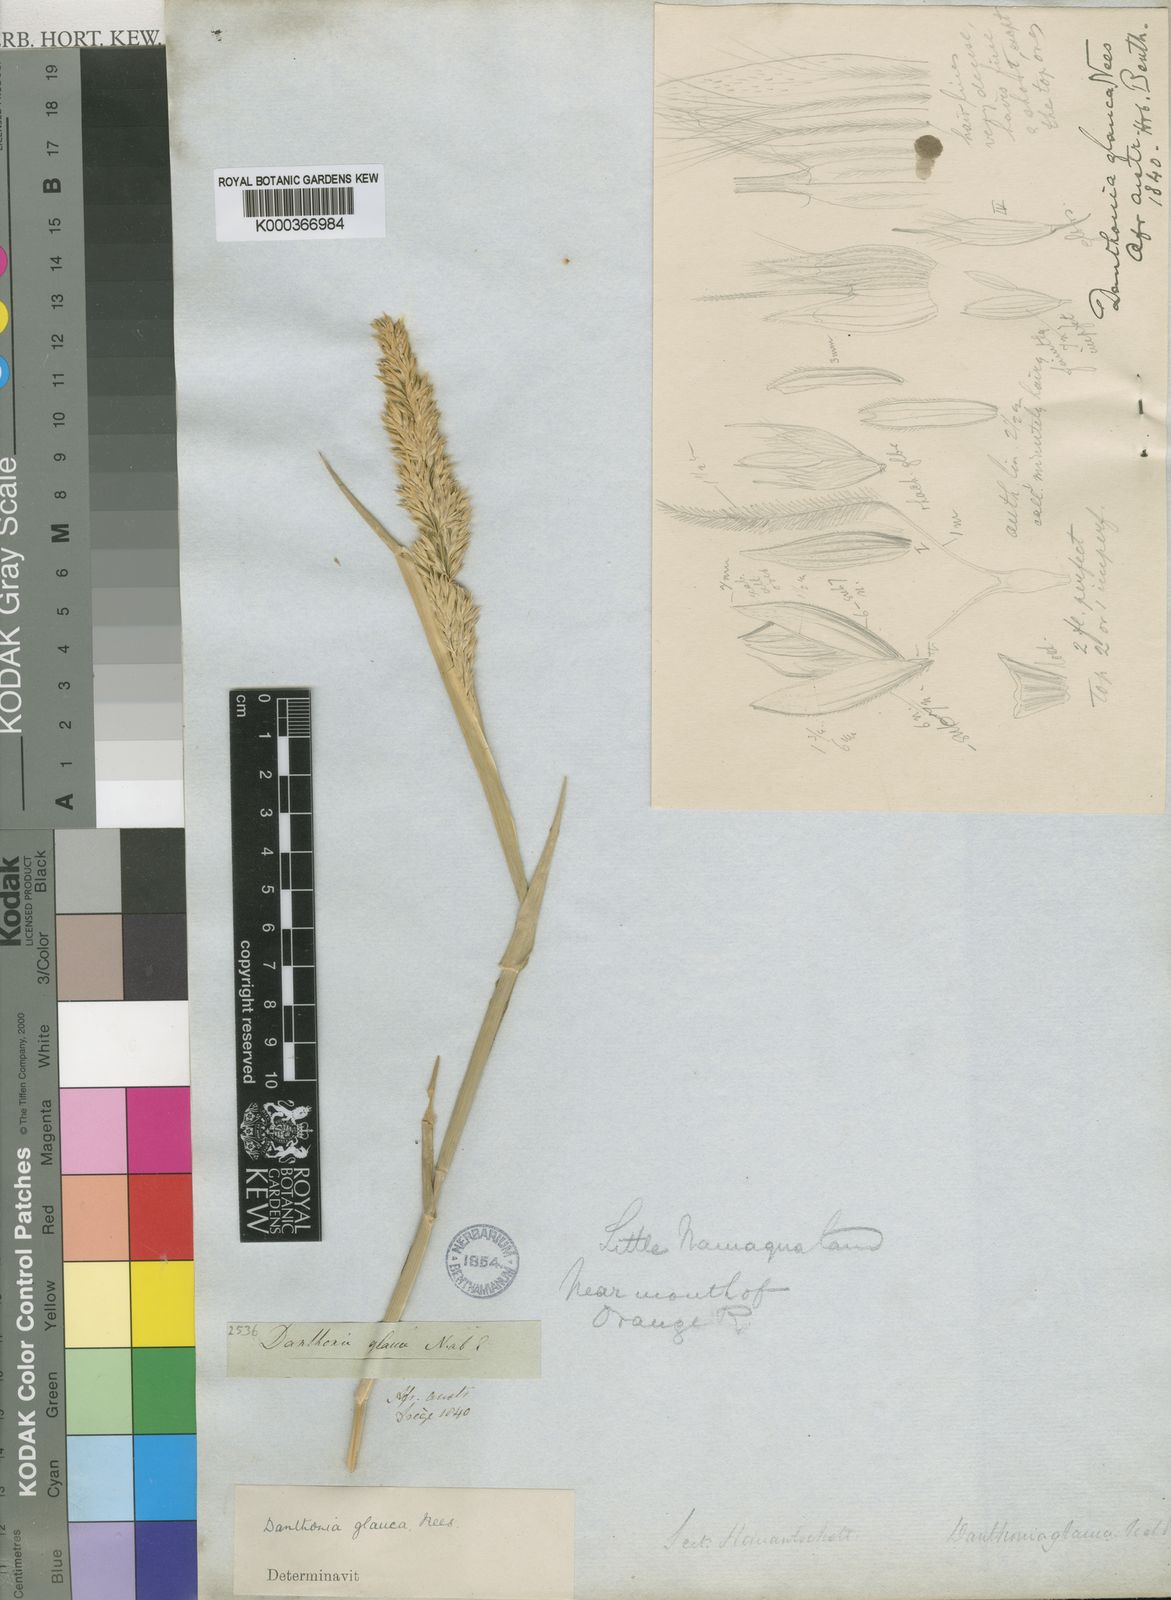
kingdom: Plantae
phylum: Tracheophyta
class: Liliopsida
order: Poales
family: Poaceae
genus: Centropodia
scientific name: Centropodia glauca
